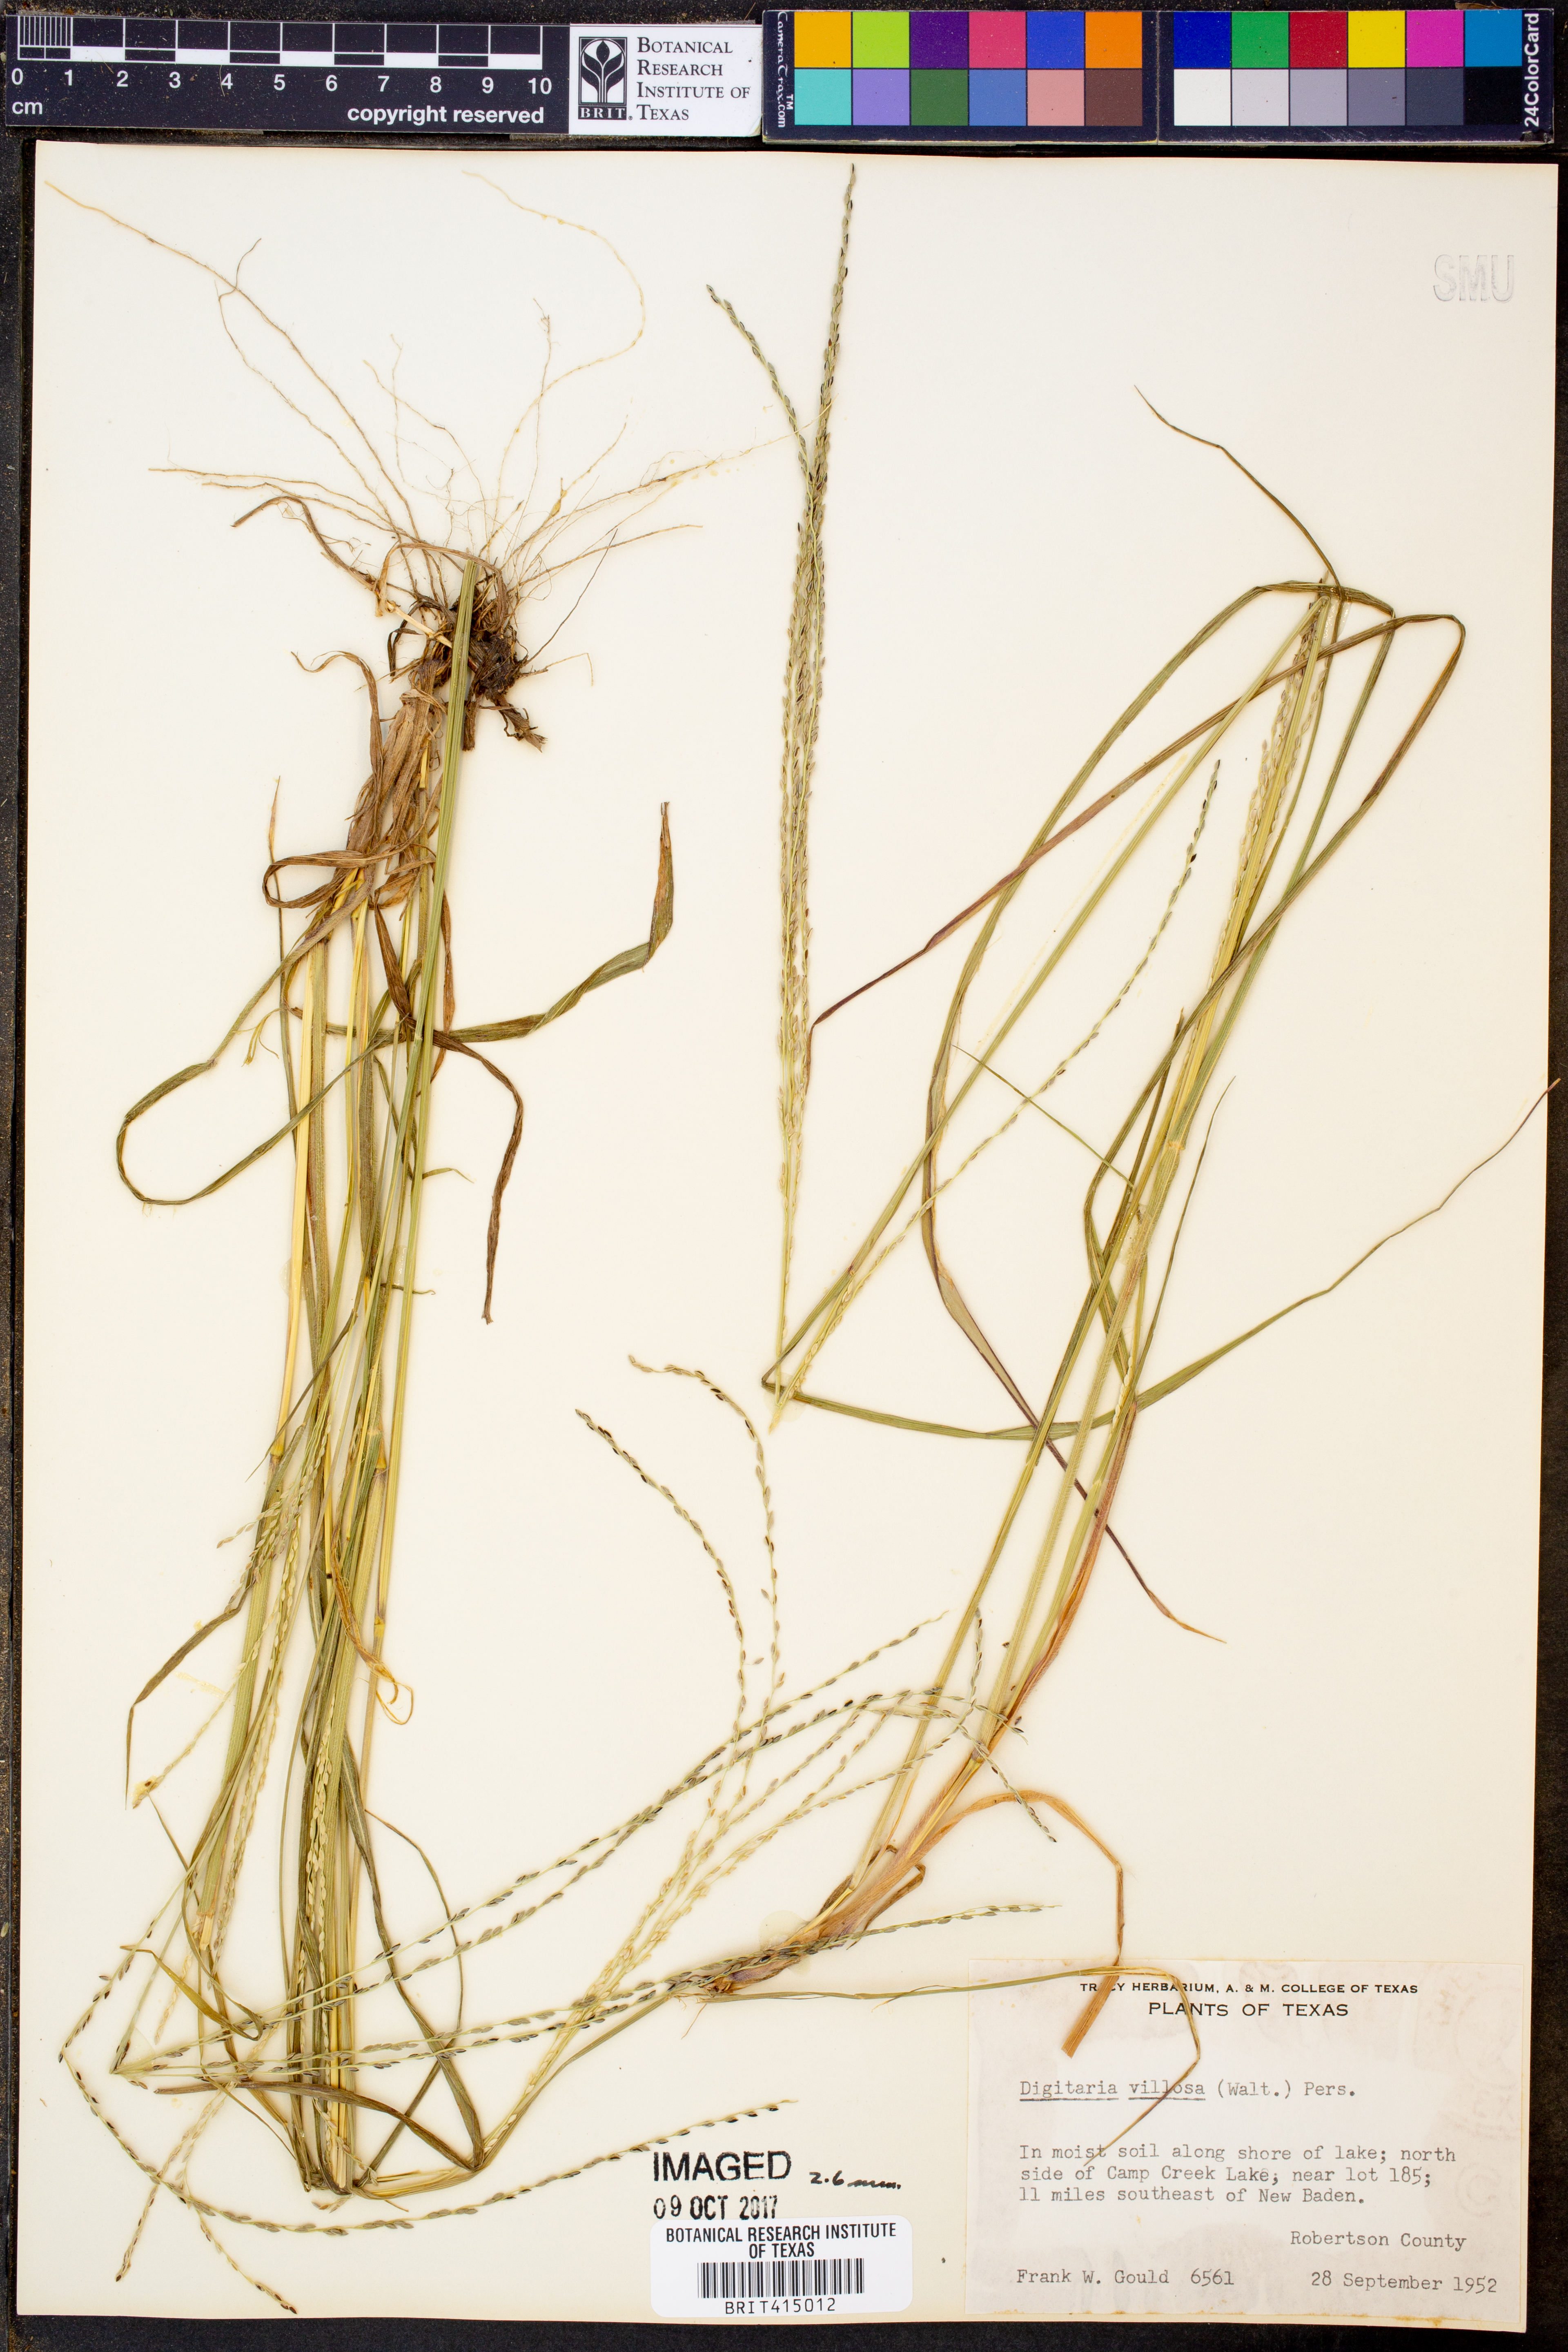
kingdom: Plantae
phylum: Tracheophyta
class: Liliopsida
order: Poales
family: Poaceae
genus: Digitaria
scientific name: Digitaria villosa
